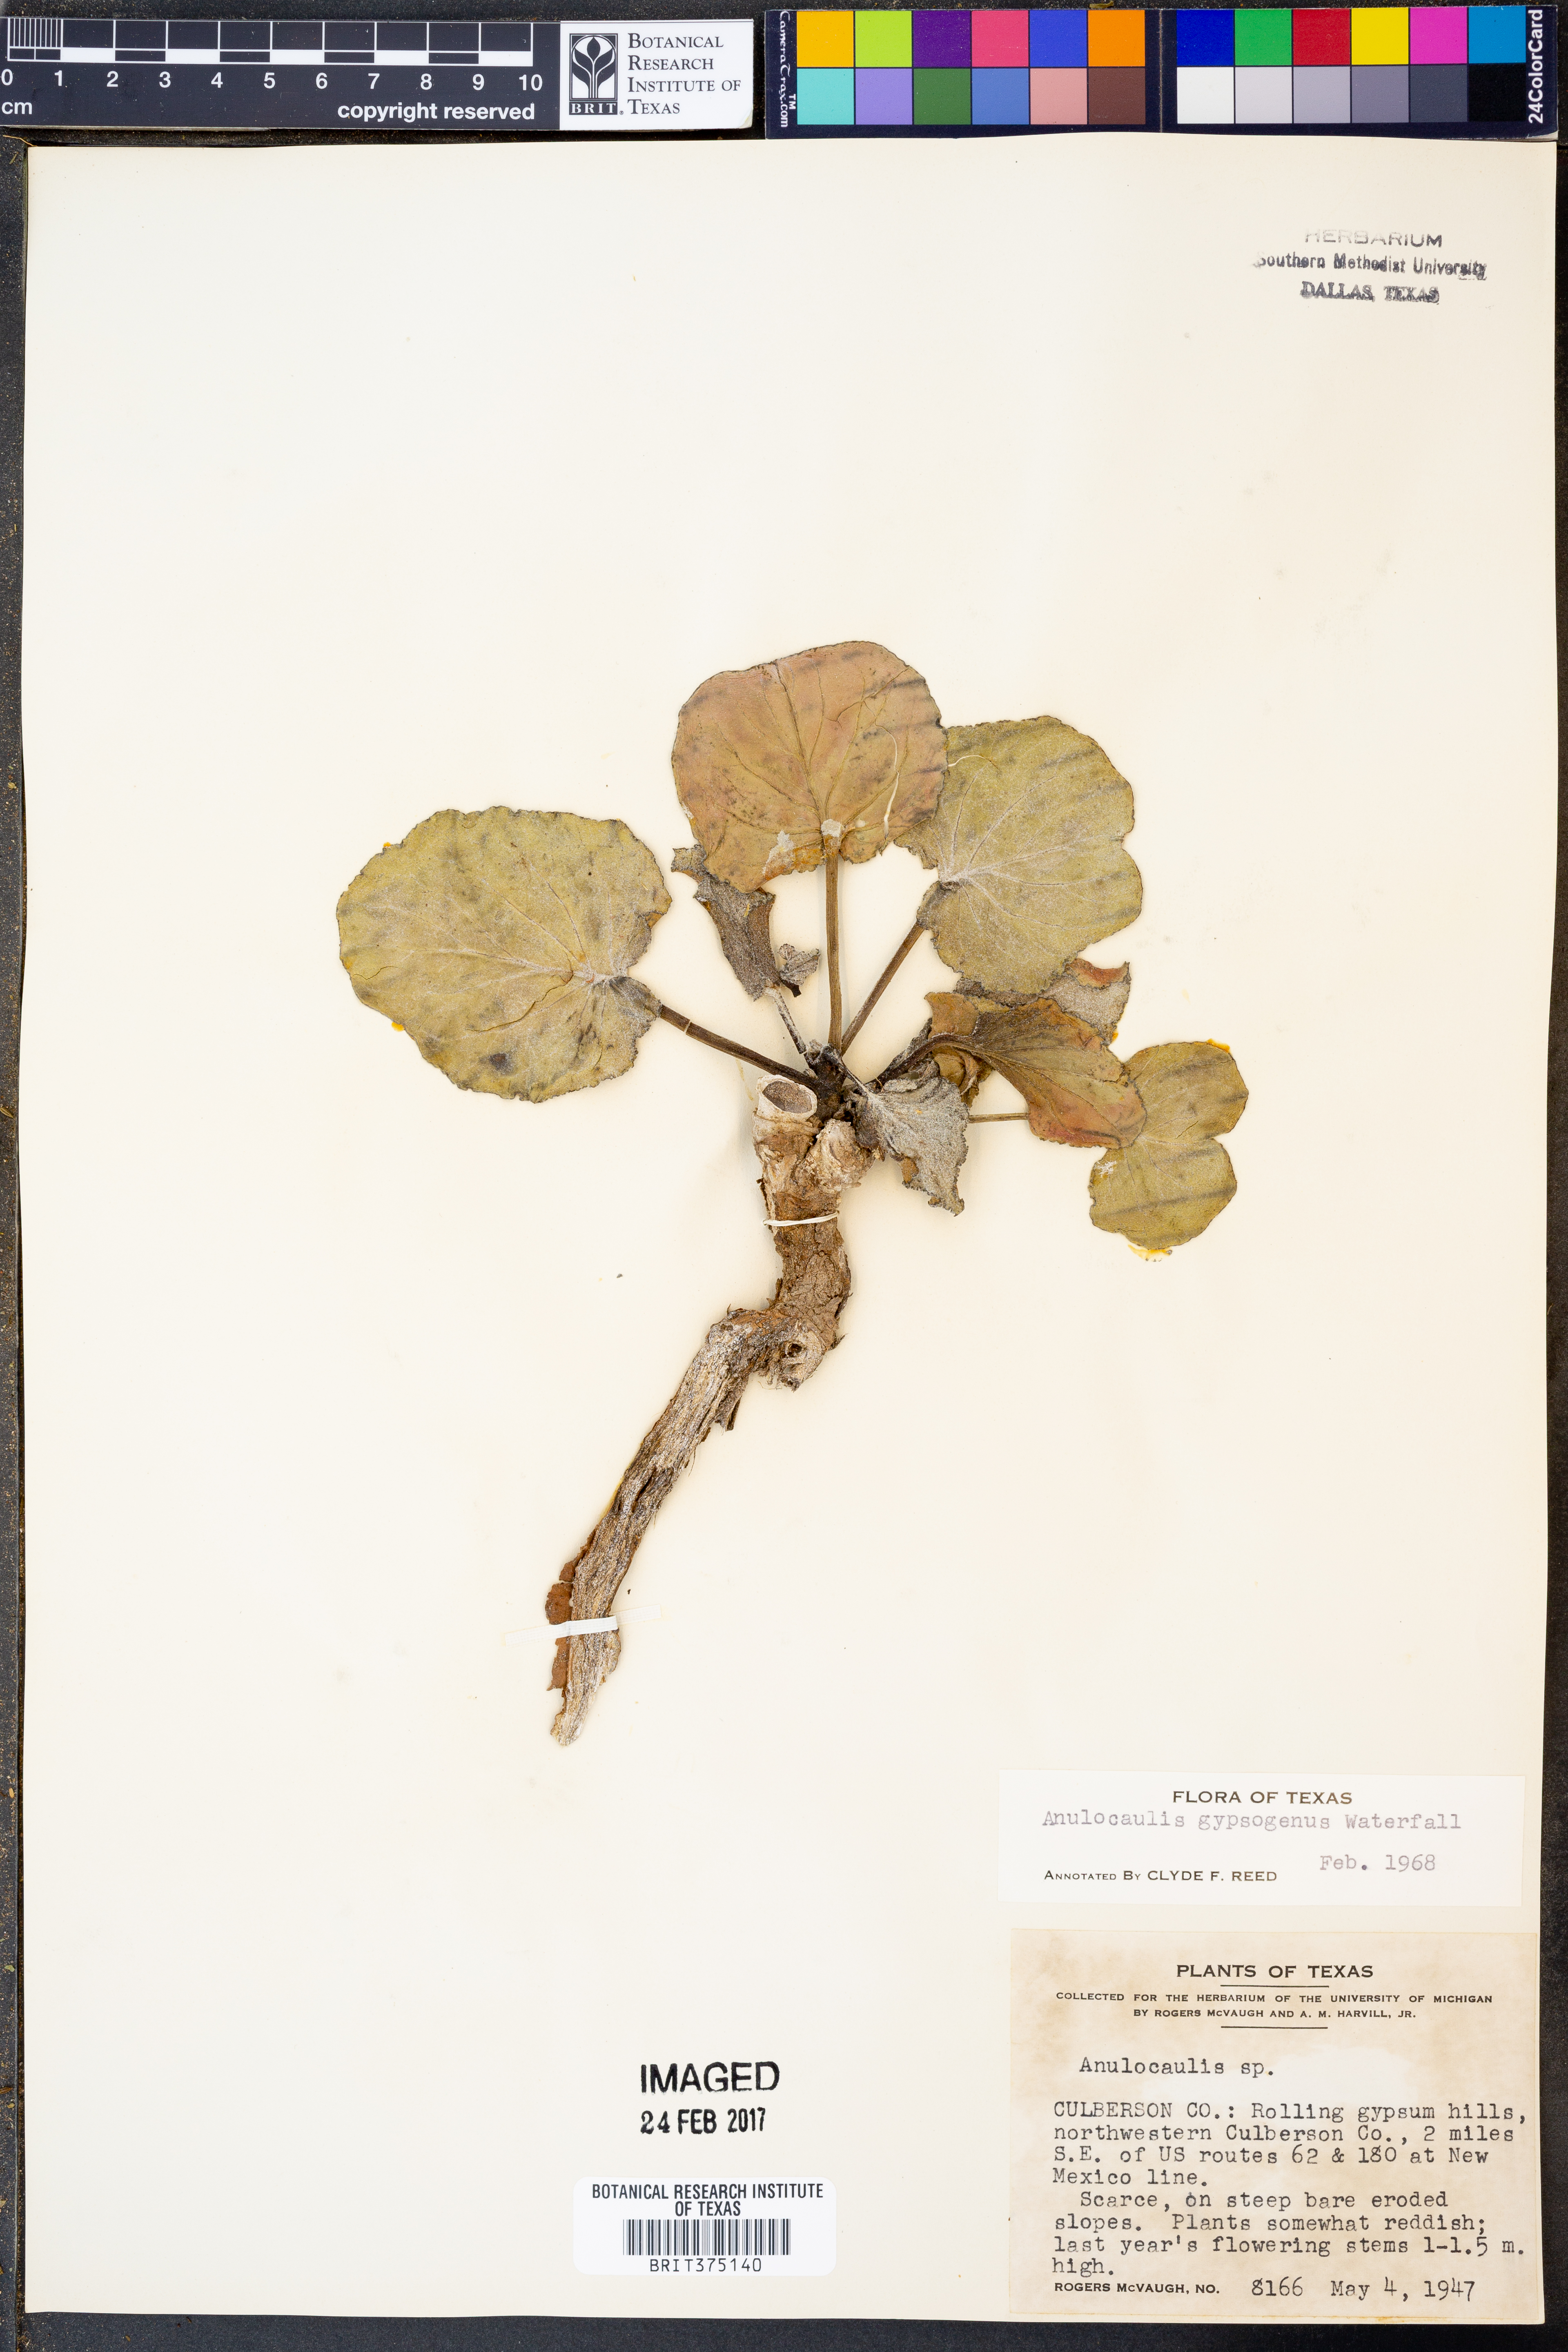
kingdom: Plantae
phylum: Tracheophyta
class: Magnoliopsida
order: Caryophyllales
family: Nyctaginaceae
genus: Anulocaulis
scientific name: Anulocaulis leiosolenus
